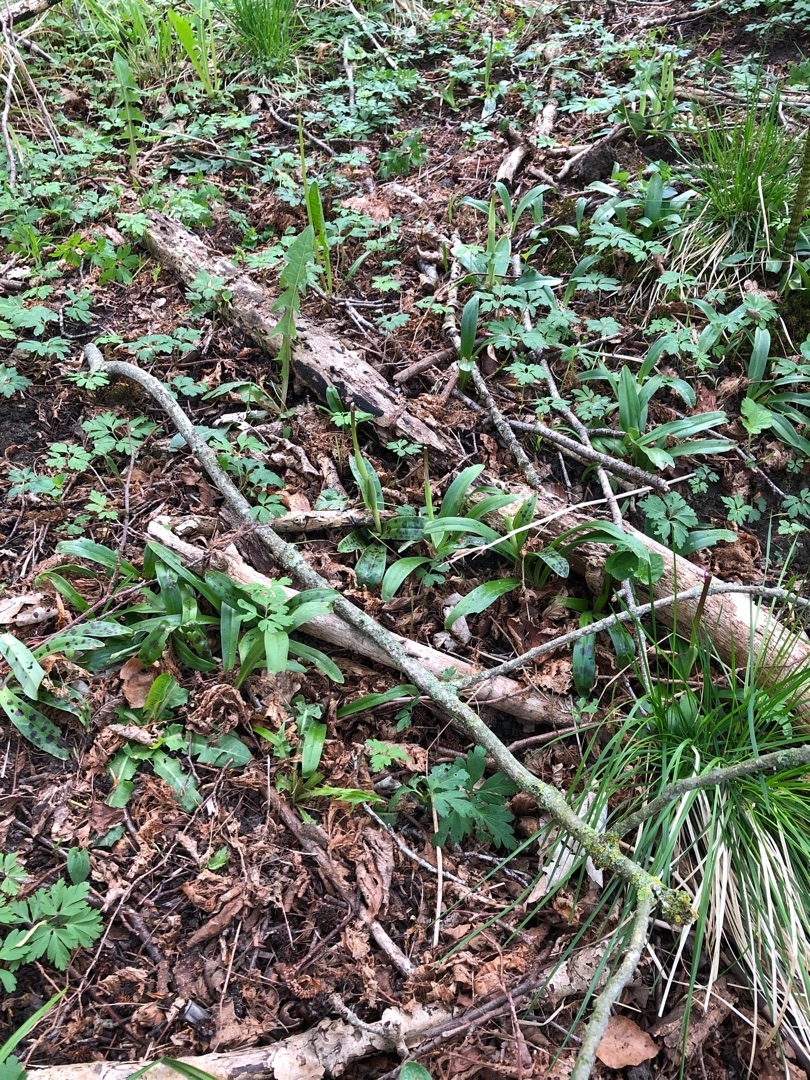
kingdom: Plantae
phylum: Tracheophyta
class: Liliopsida
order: Asparagales
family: Orchidaceae
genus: Orchis
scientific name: Orchis mascula
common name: Tyndakset gøgeurt
